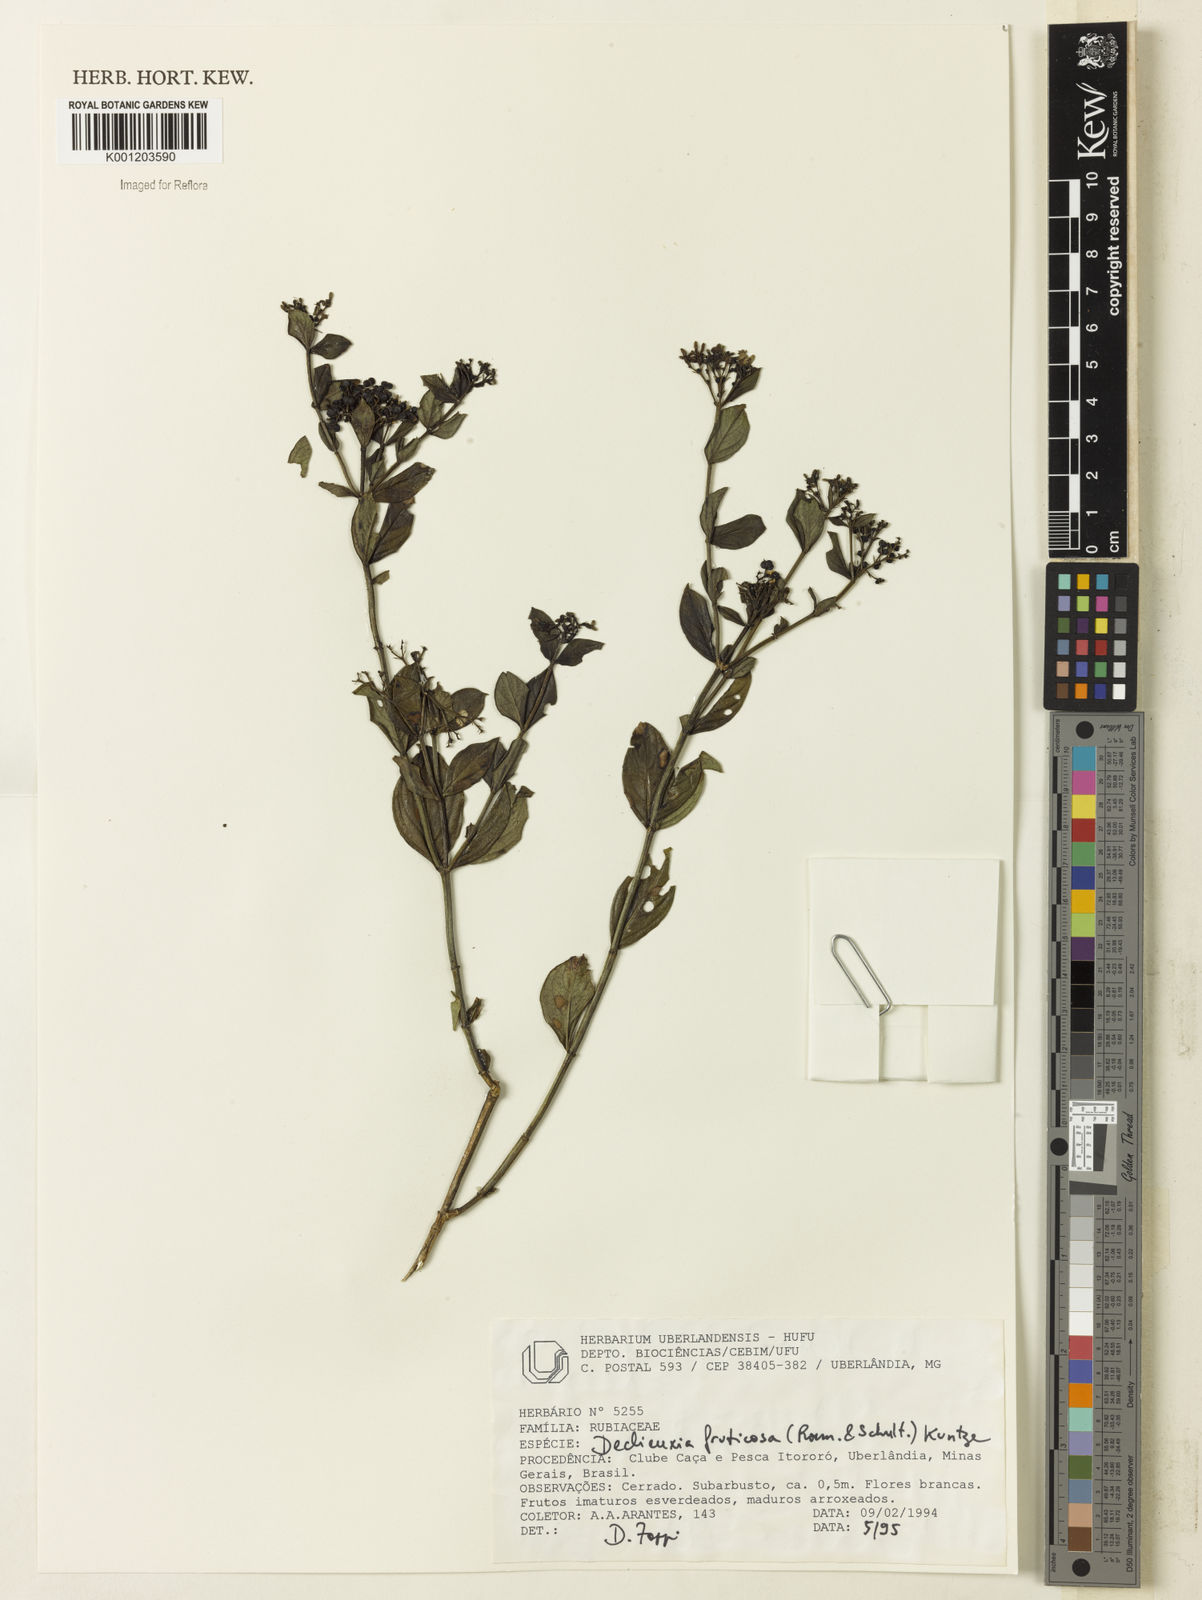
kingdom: Plantae
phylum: Tracheophyta
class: Magnoliopsida
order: Gentianales
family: Rubiaceae
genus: Declieuxia
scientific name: Declieuxia fruticosa
